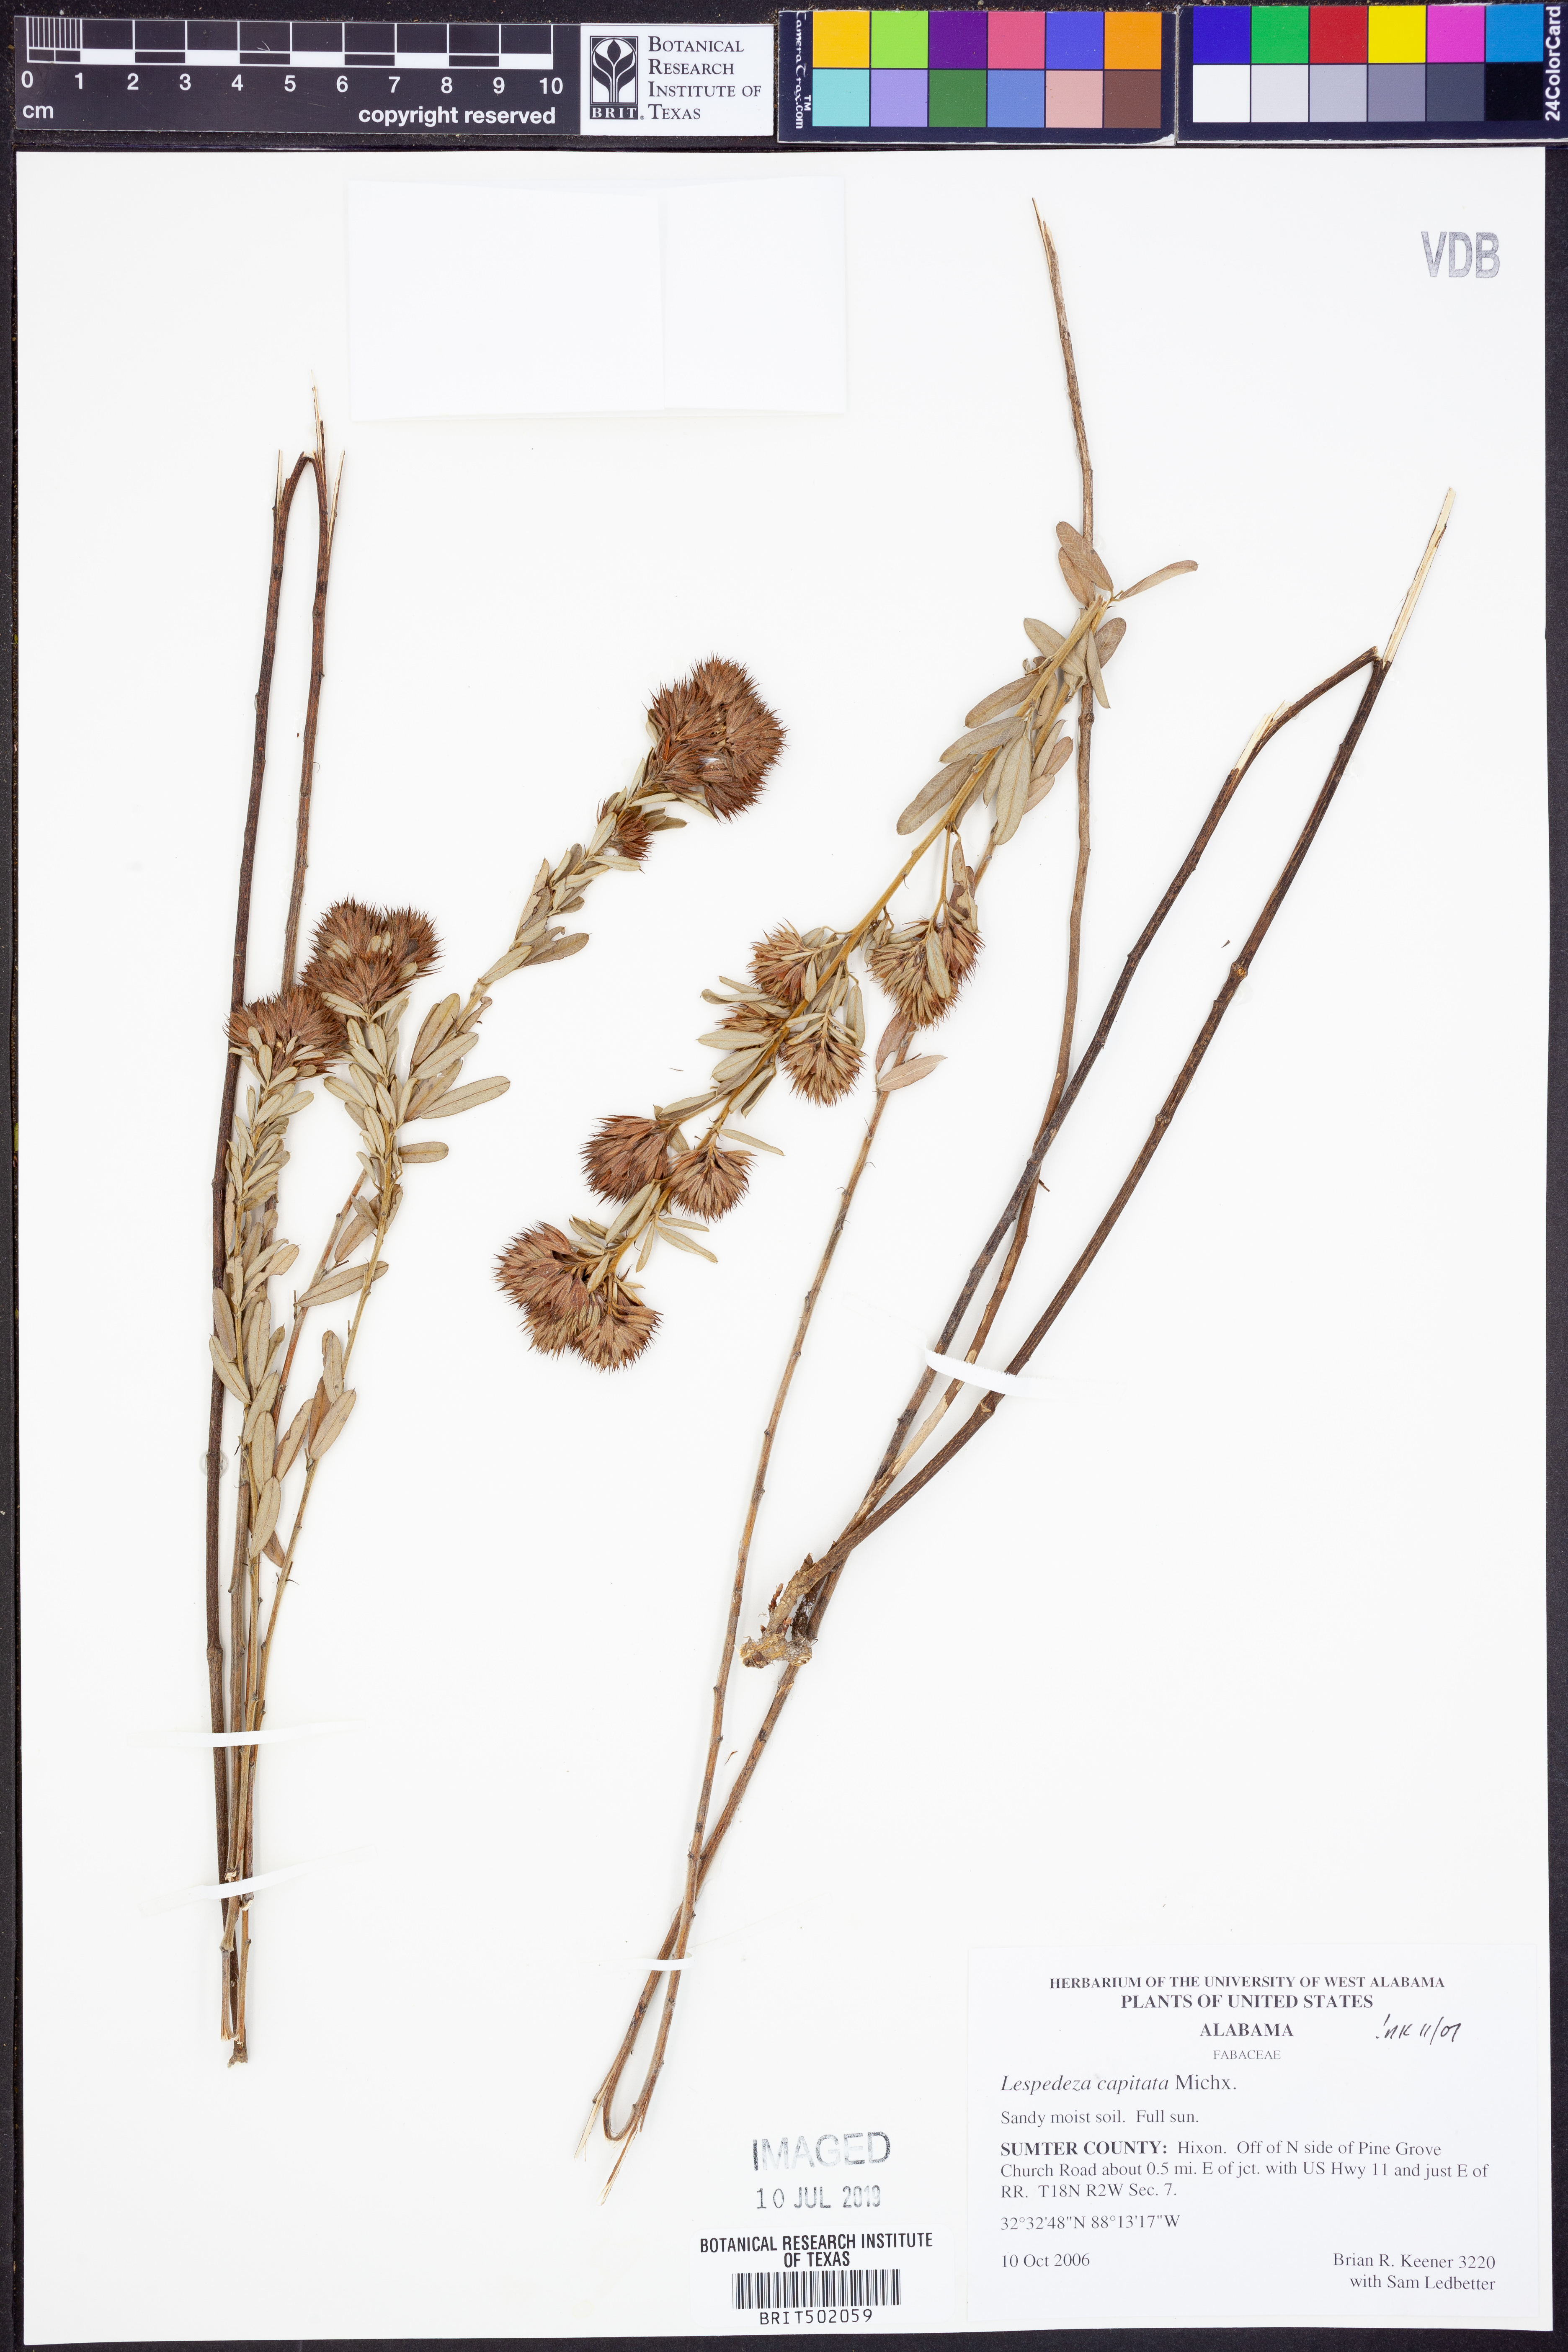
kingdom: Plantae
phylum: Tracheophyta
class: Magnoliopsida
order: Fabales
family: Fabaceae
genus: Lespedeza
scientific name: Lespedeza capitata
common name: Dusty clover
